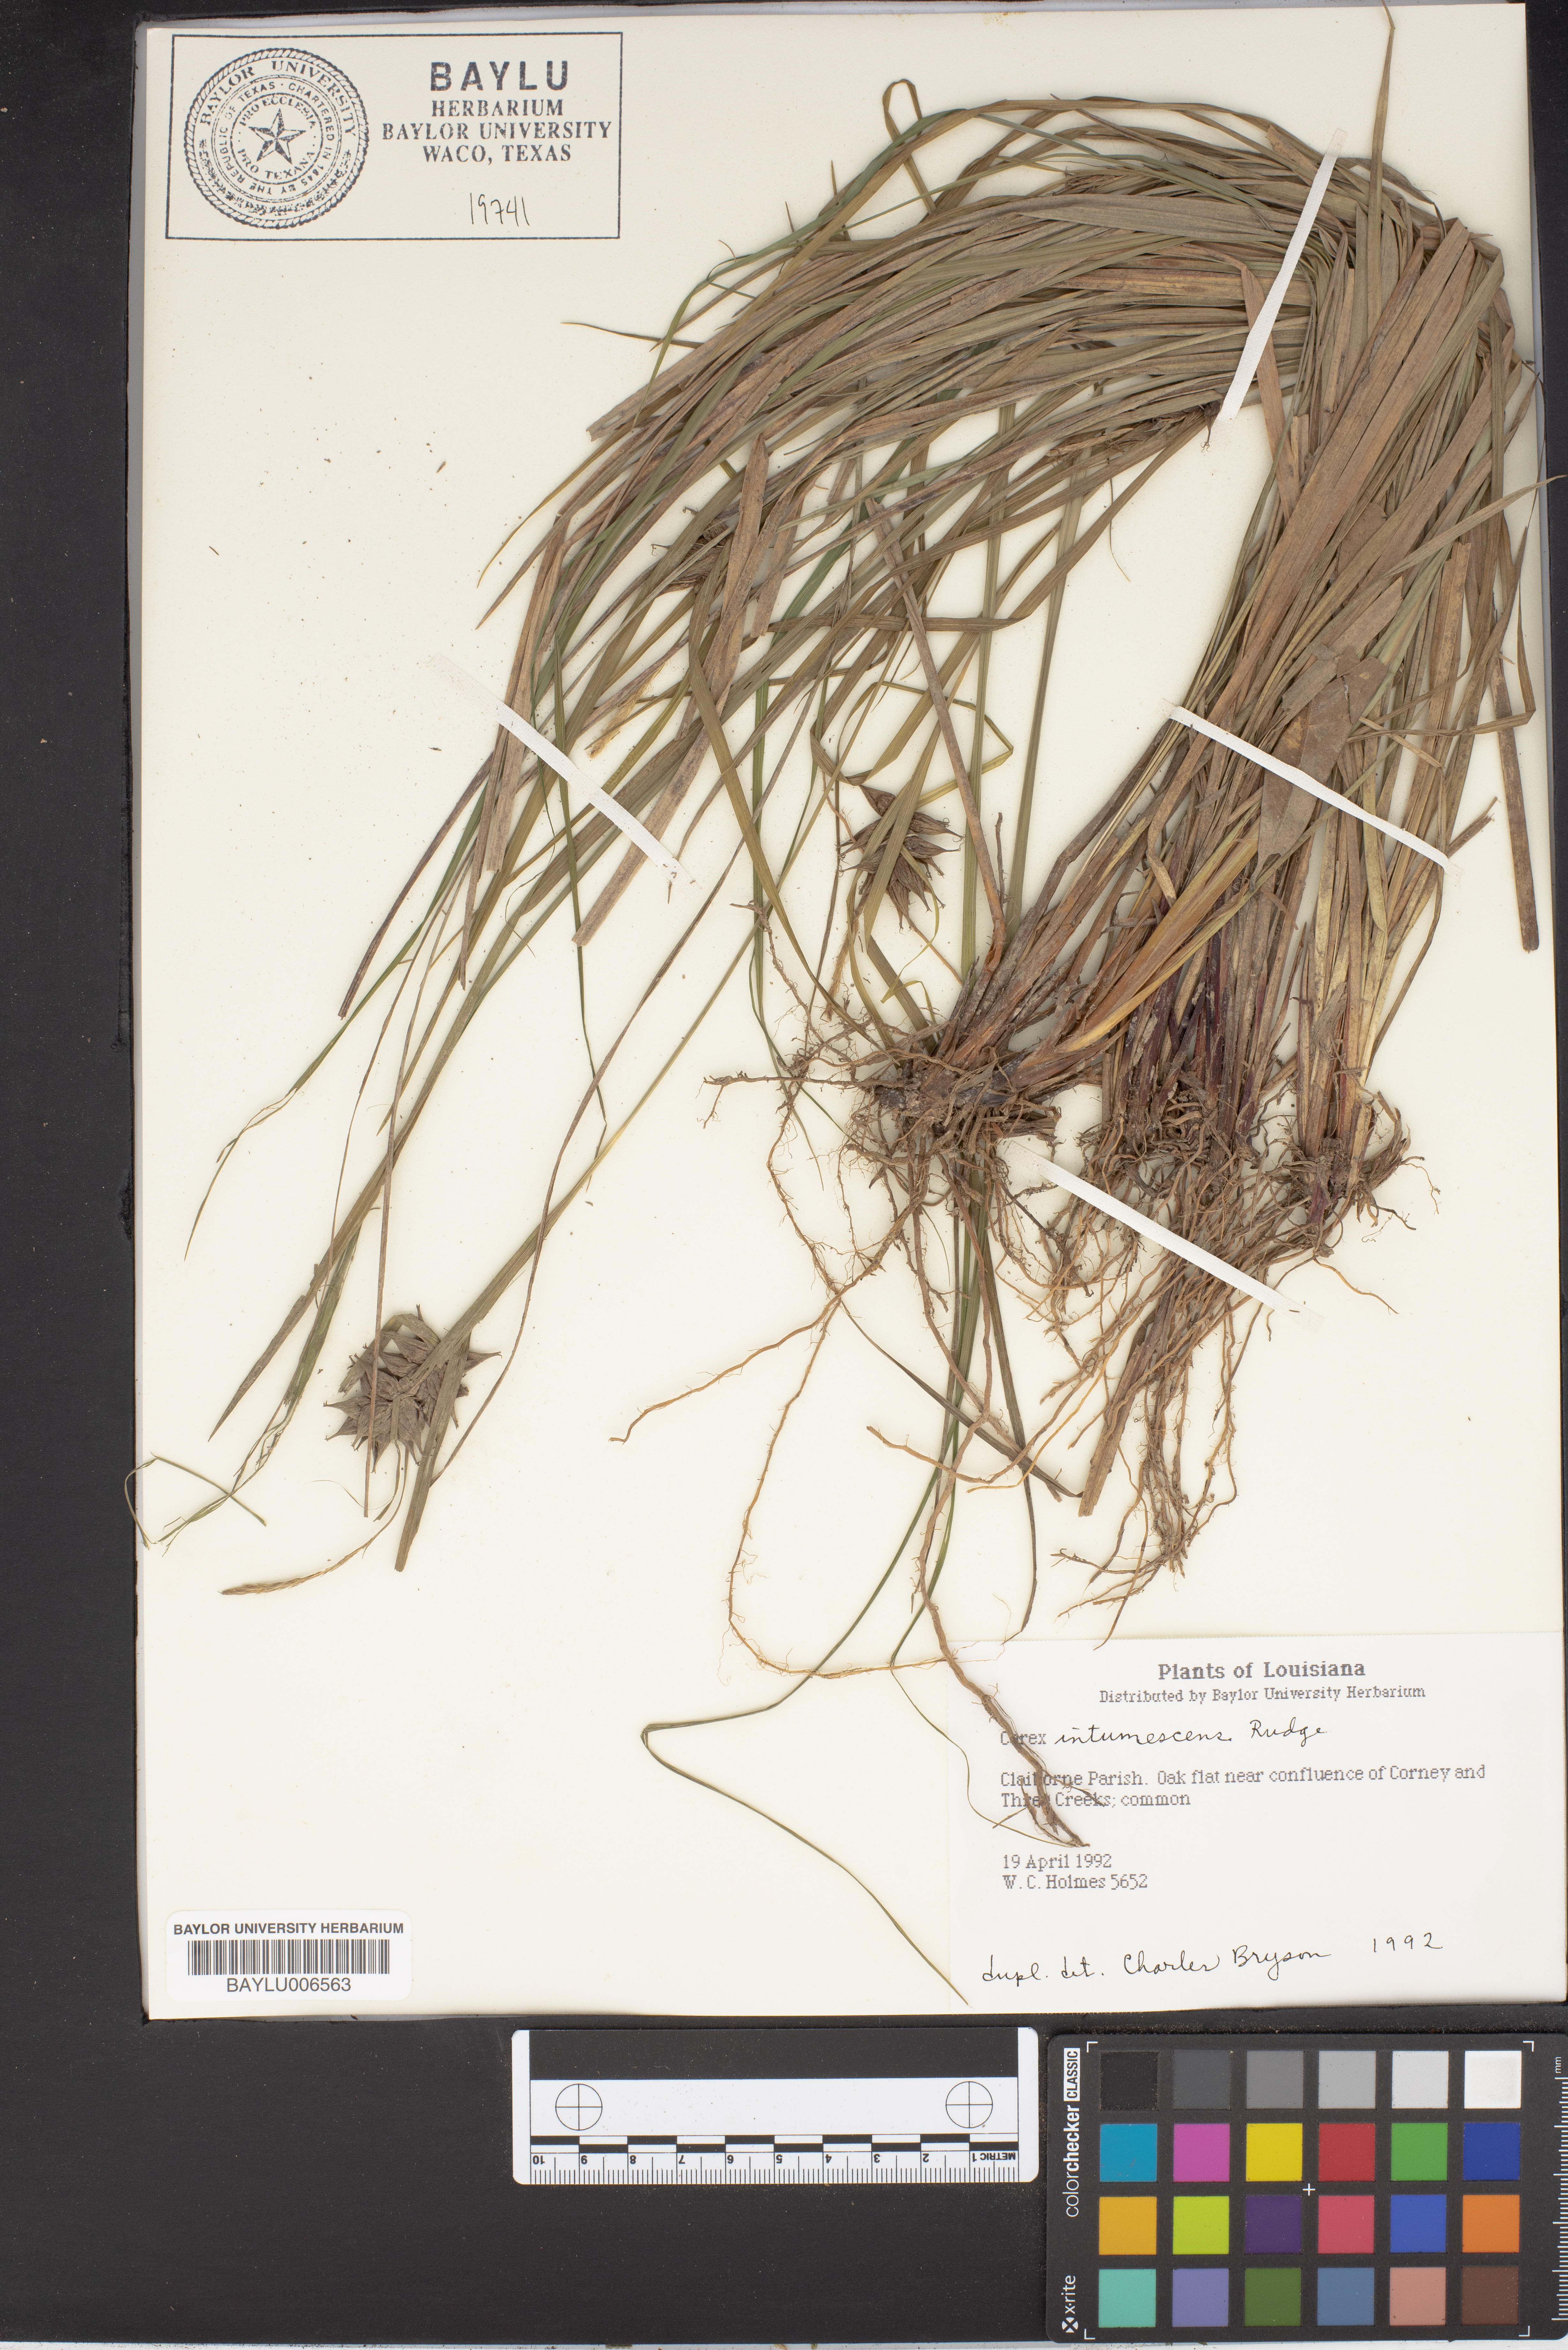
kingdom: Plantae
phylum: Tracheophyta
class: Liliopsida
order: Poales
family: Cyperaceae
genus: Carex
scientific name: Carex intumescens
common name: Greater bladder sedge
